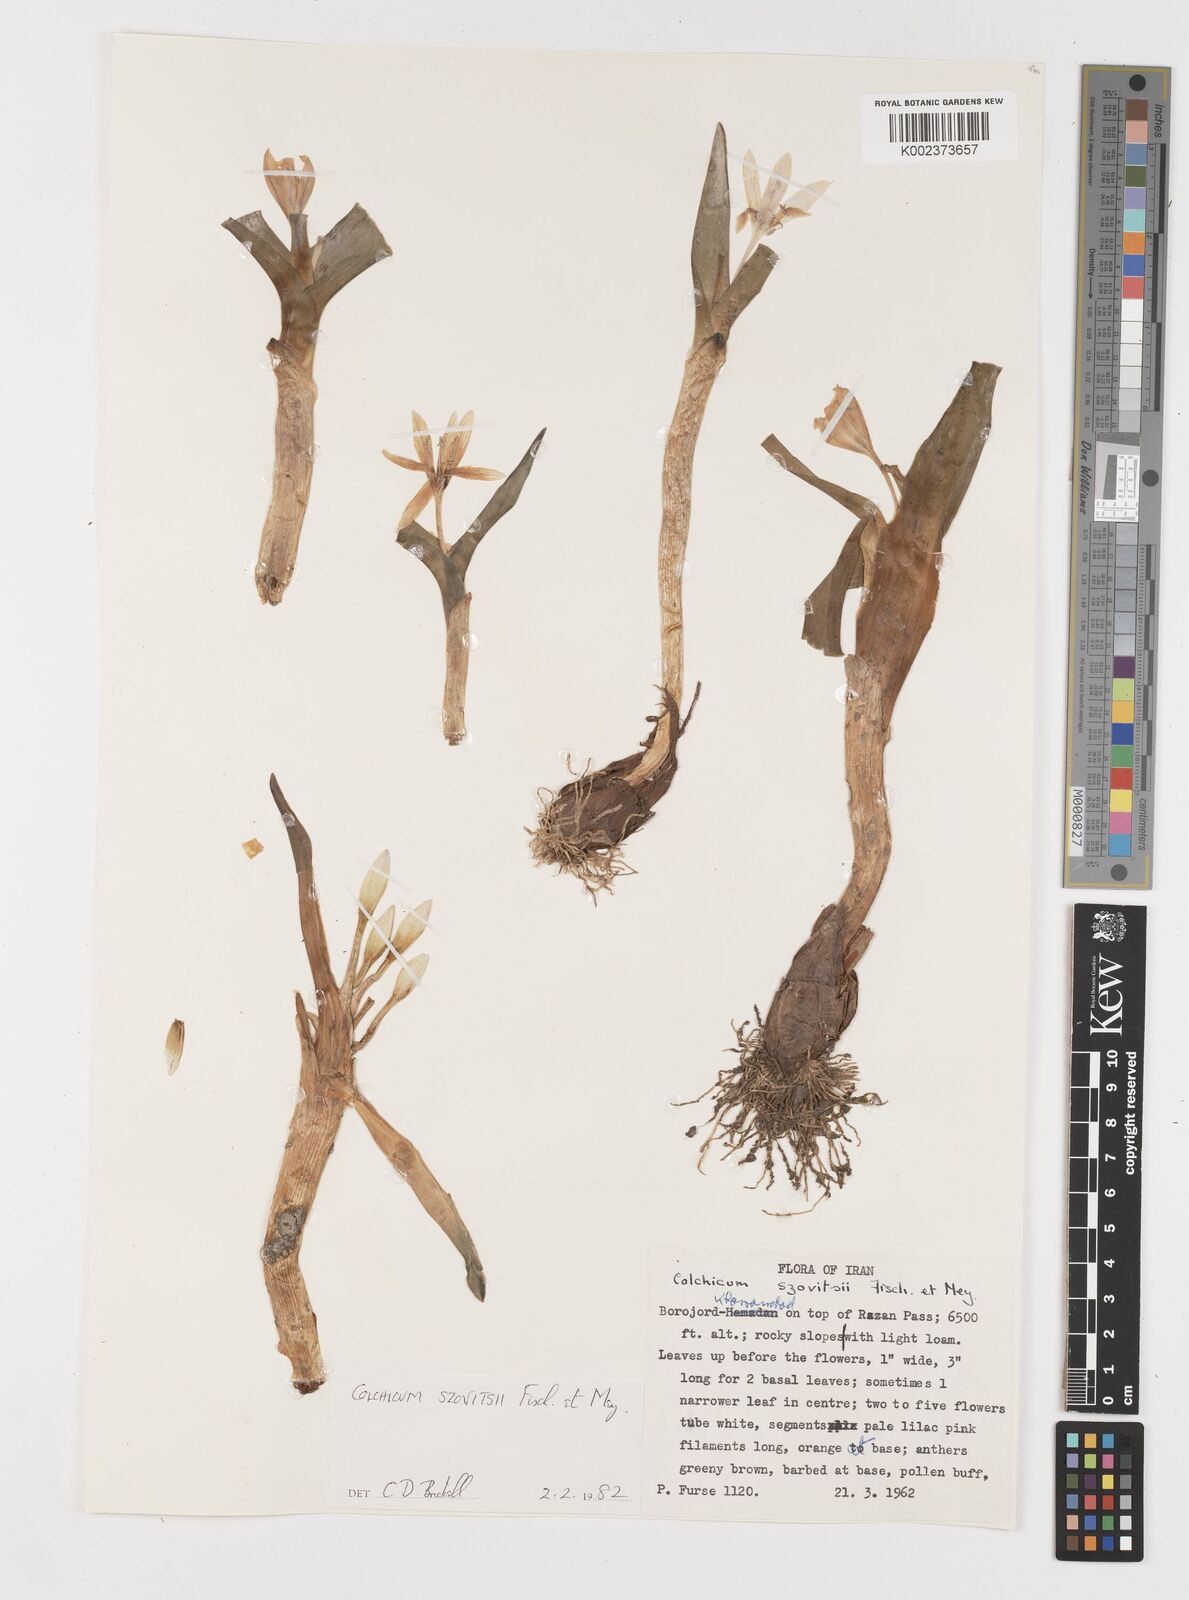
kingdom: Plantae
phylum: Tracheophyta
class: Liliopsida
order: Liliales
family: Colchicaceae
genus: Colchicum
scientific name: Colchicum szovitsii
